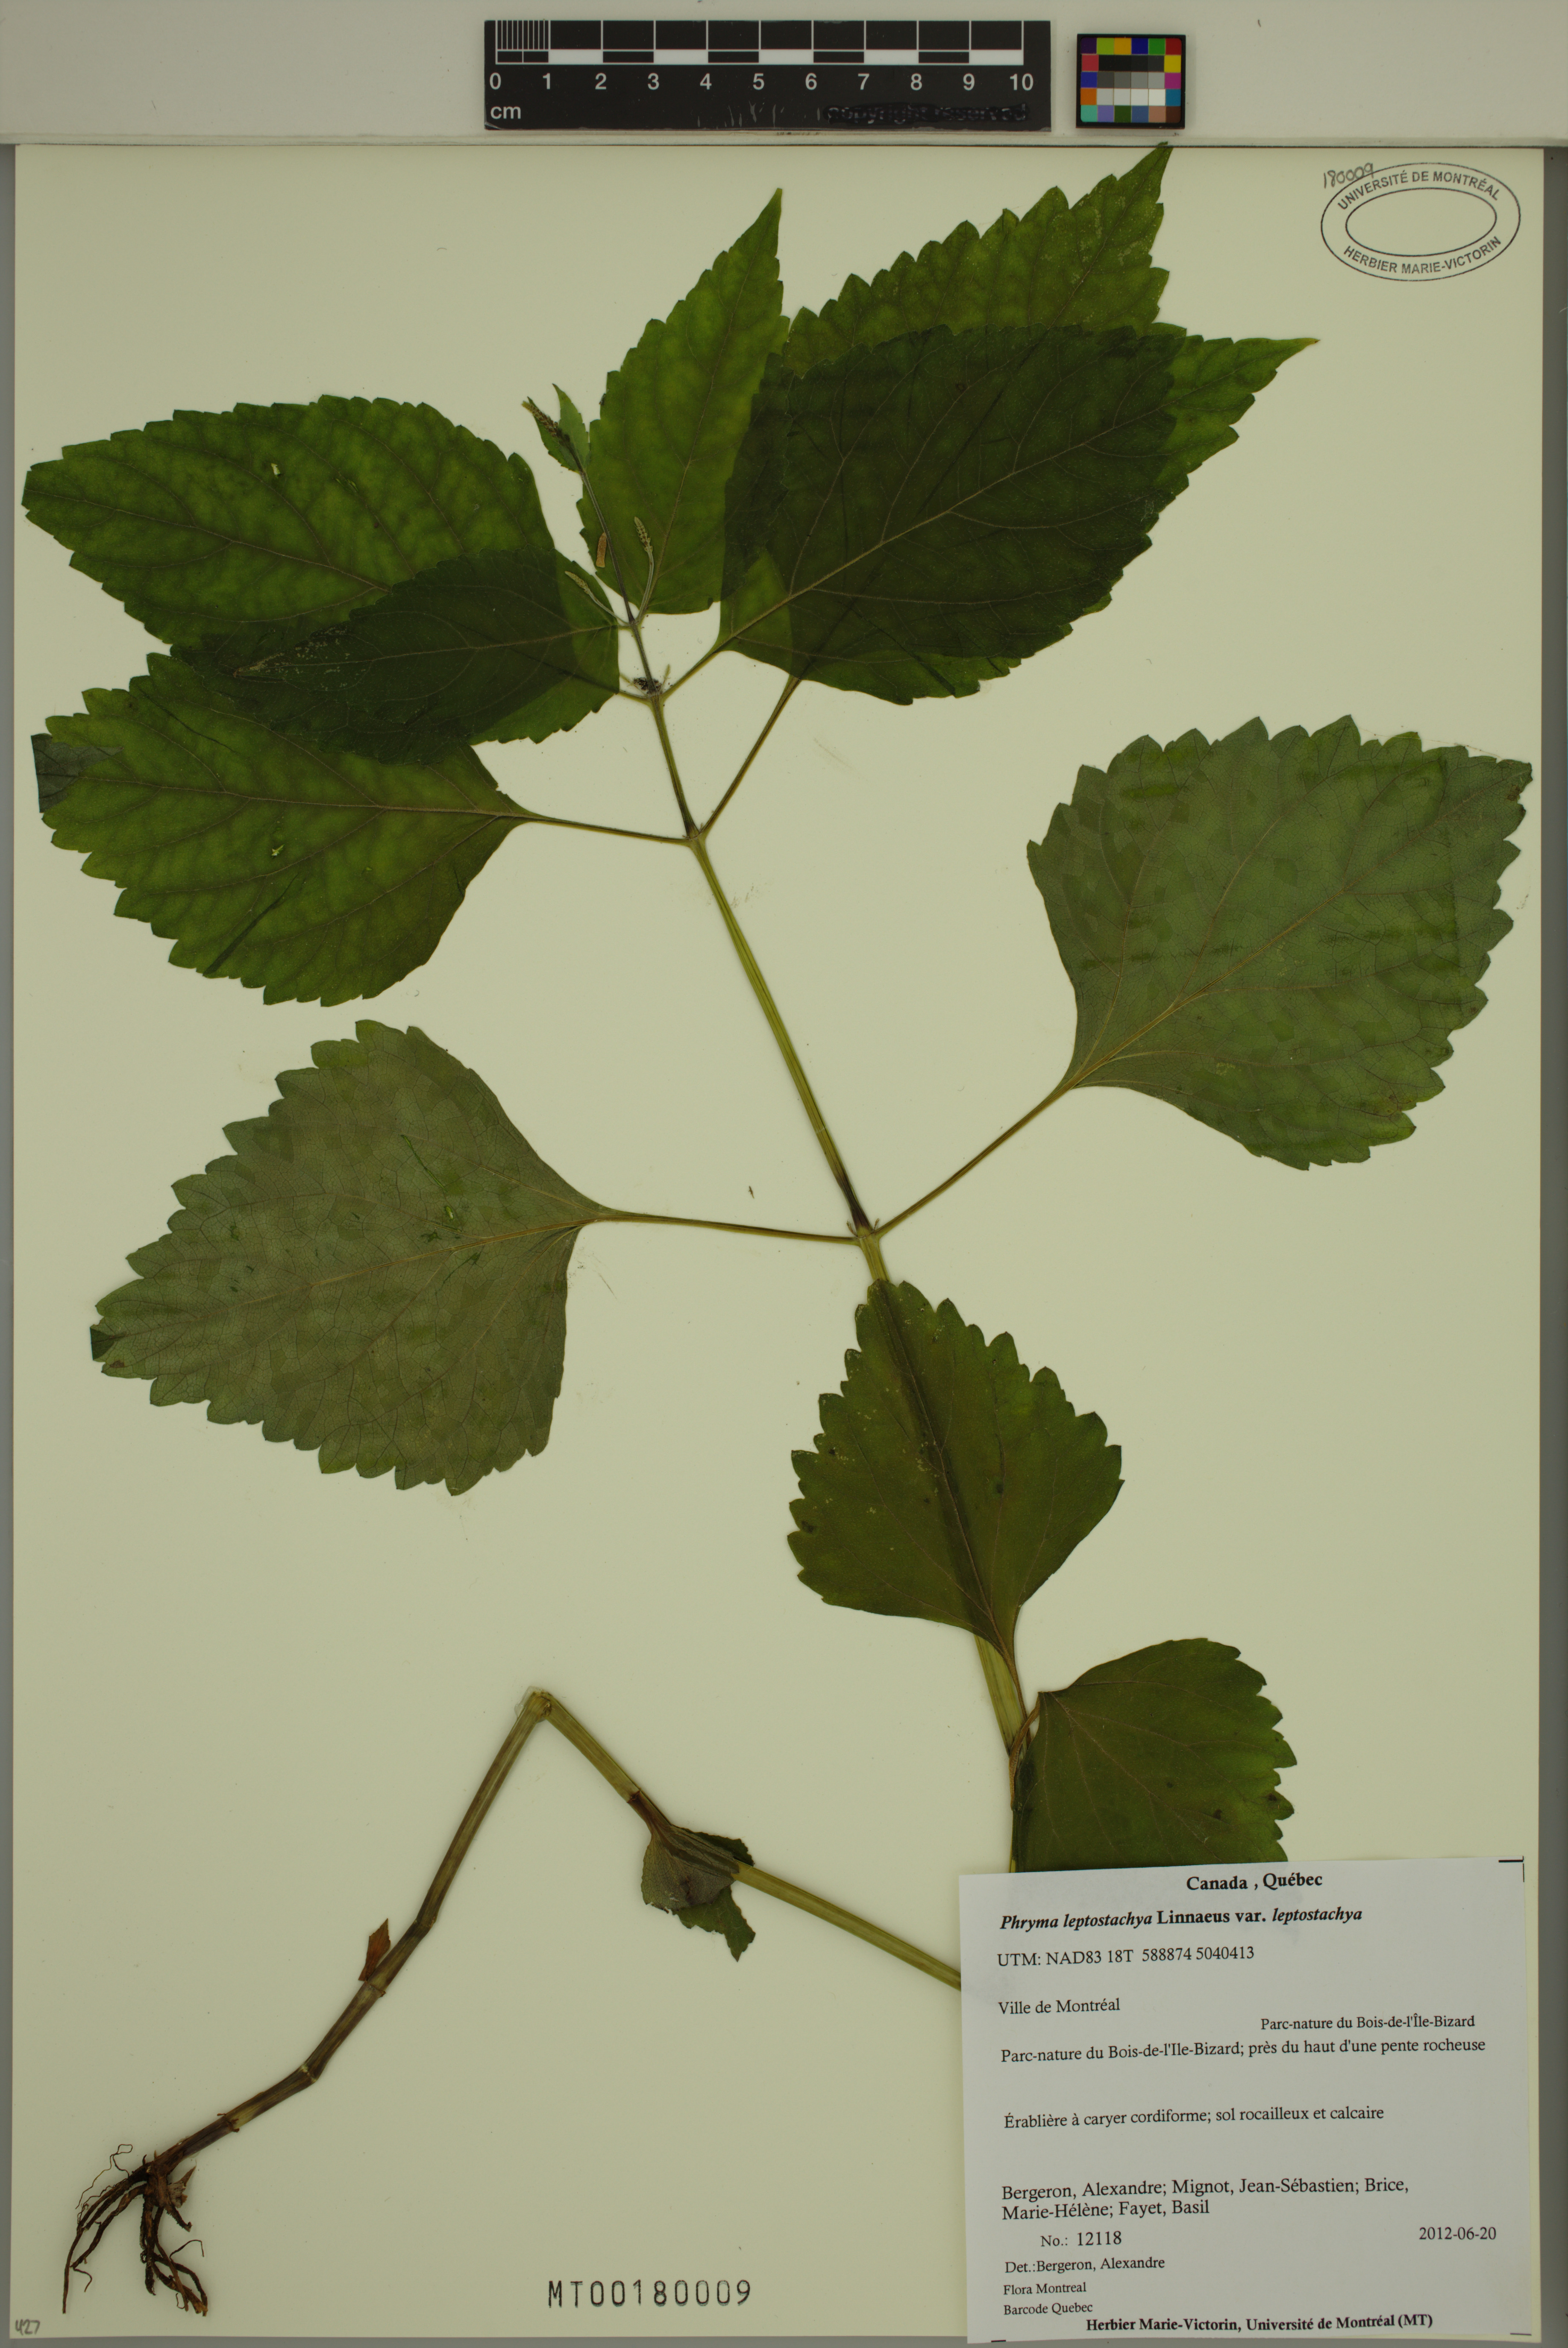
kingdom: Plantae
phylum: Tracheophyta
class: Magnoliopsida
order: Lamiales
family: Phrymaceae
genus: Phryma
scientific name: Phryma leptostachya
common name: American lopseed
